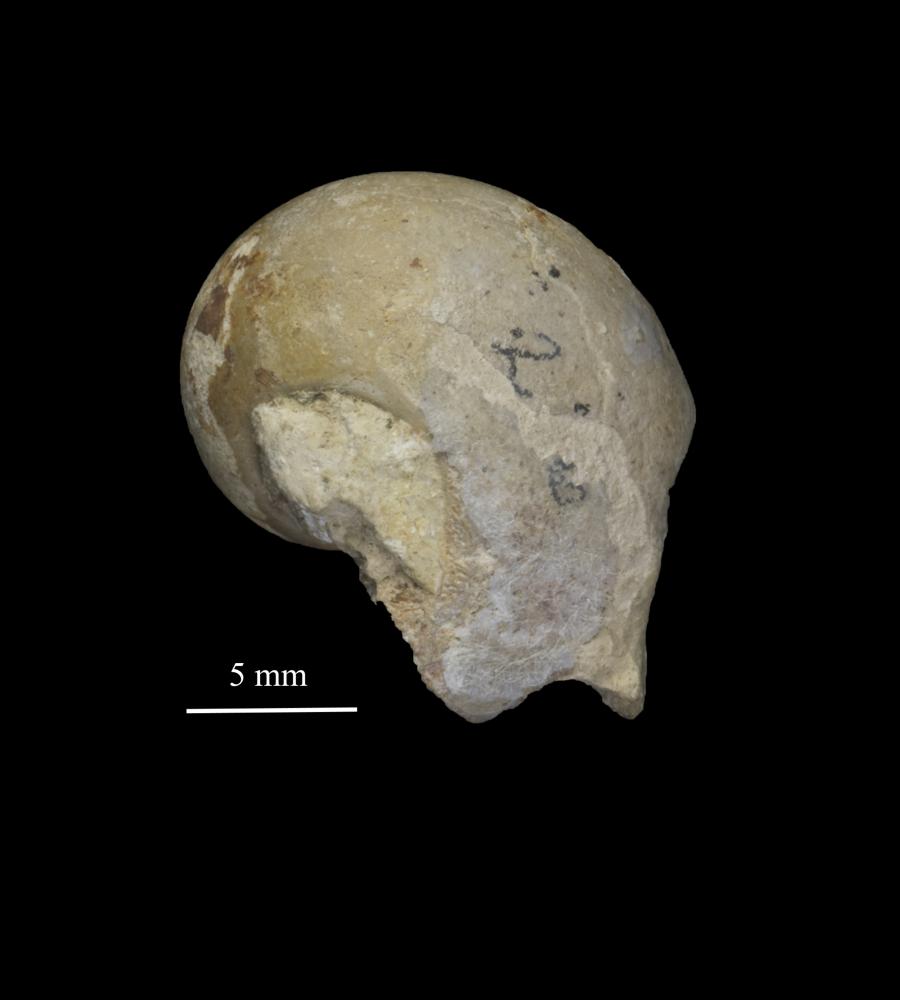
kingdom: Animalia
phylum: Mollusca
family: Bucanellidae
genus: Bucanella
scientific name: Bucanella
